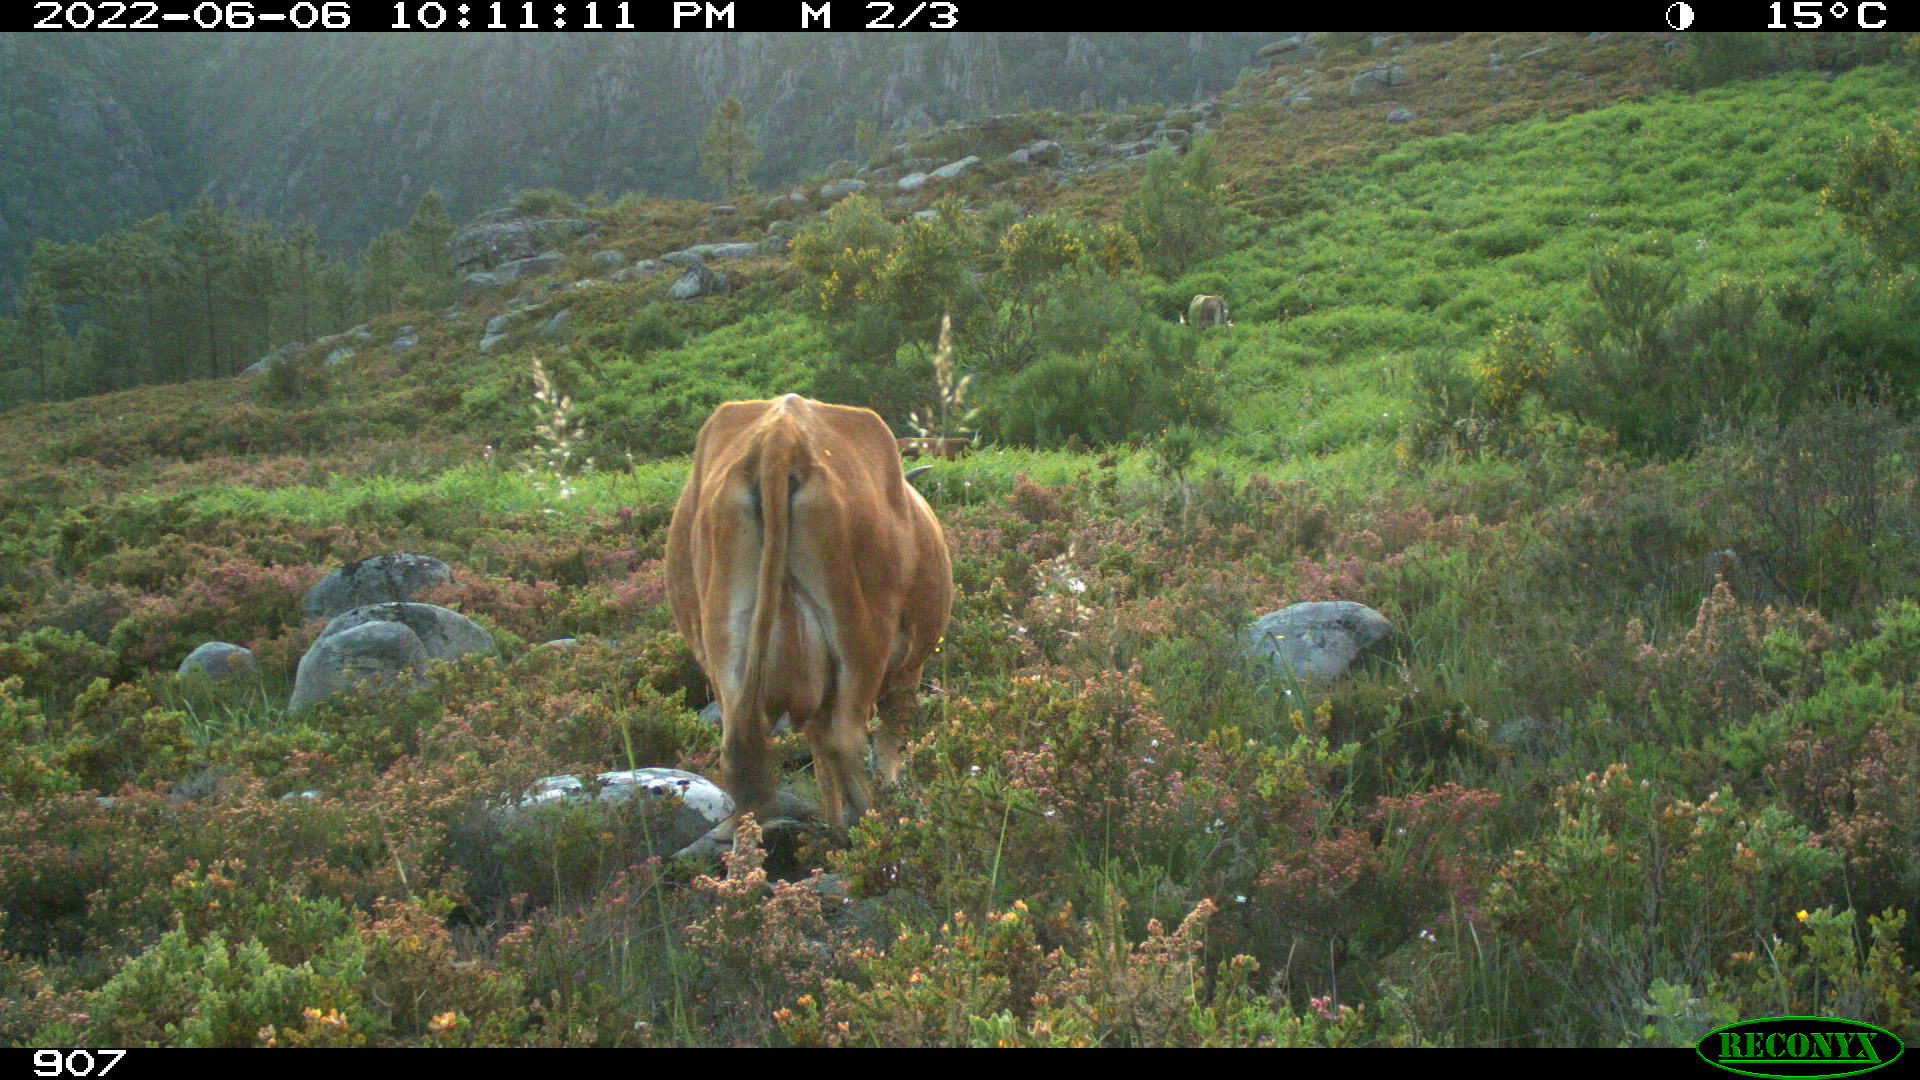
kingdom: Animalia
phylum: Chordata
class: Mammalia
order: Artiodactyla
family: Bovidae
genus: Bos
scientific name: Bos taurus
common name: Domesticated cattle
